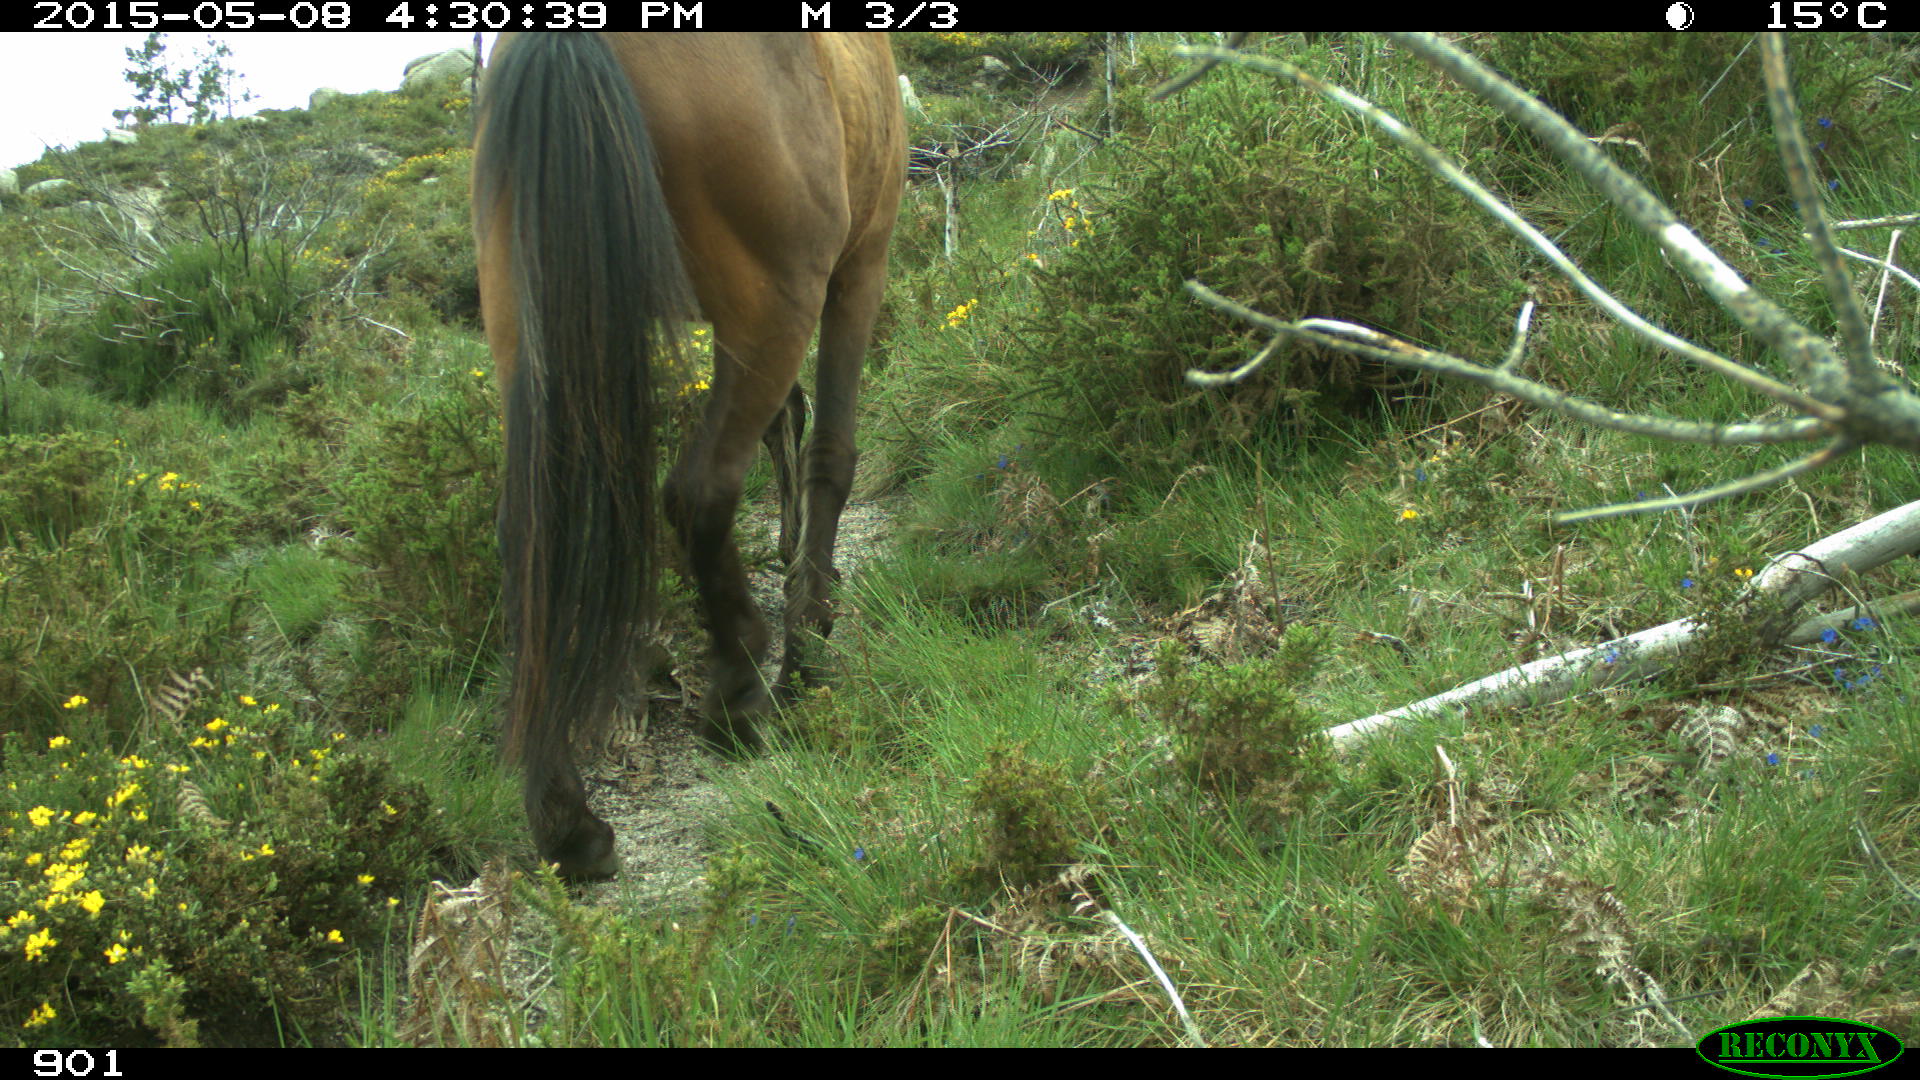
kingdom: Animalia
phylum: Chordata
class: Mammalia
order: Perissodactyla
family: Equidae
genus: Equus
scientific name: Equus caballus
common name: Horse
